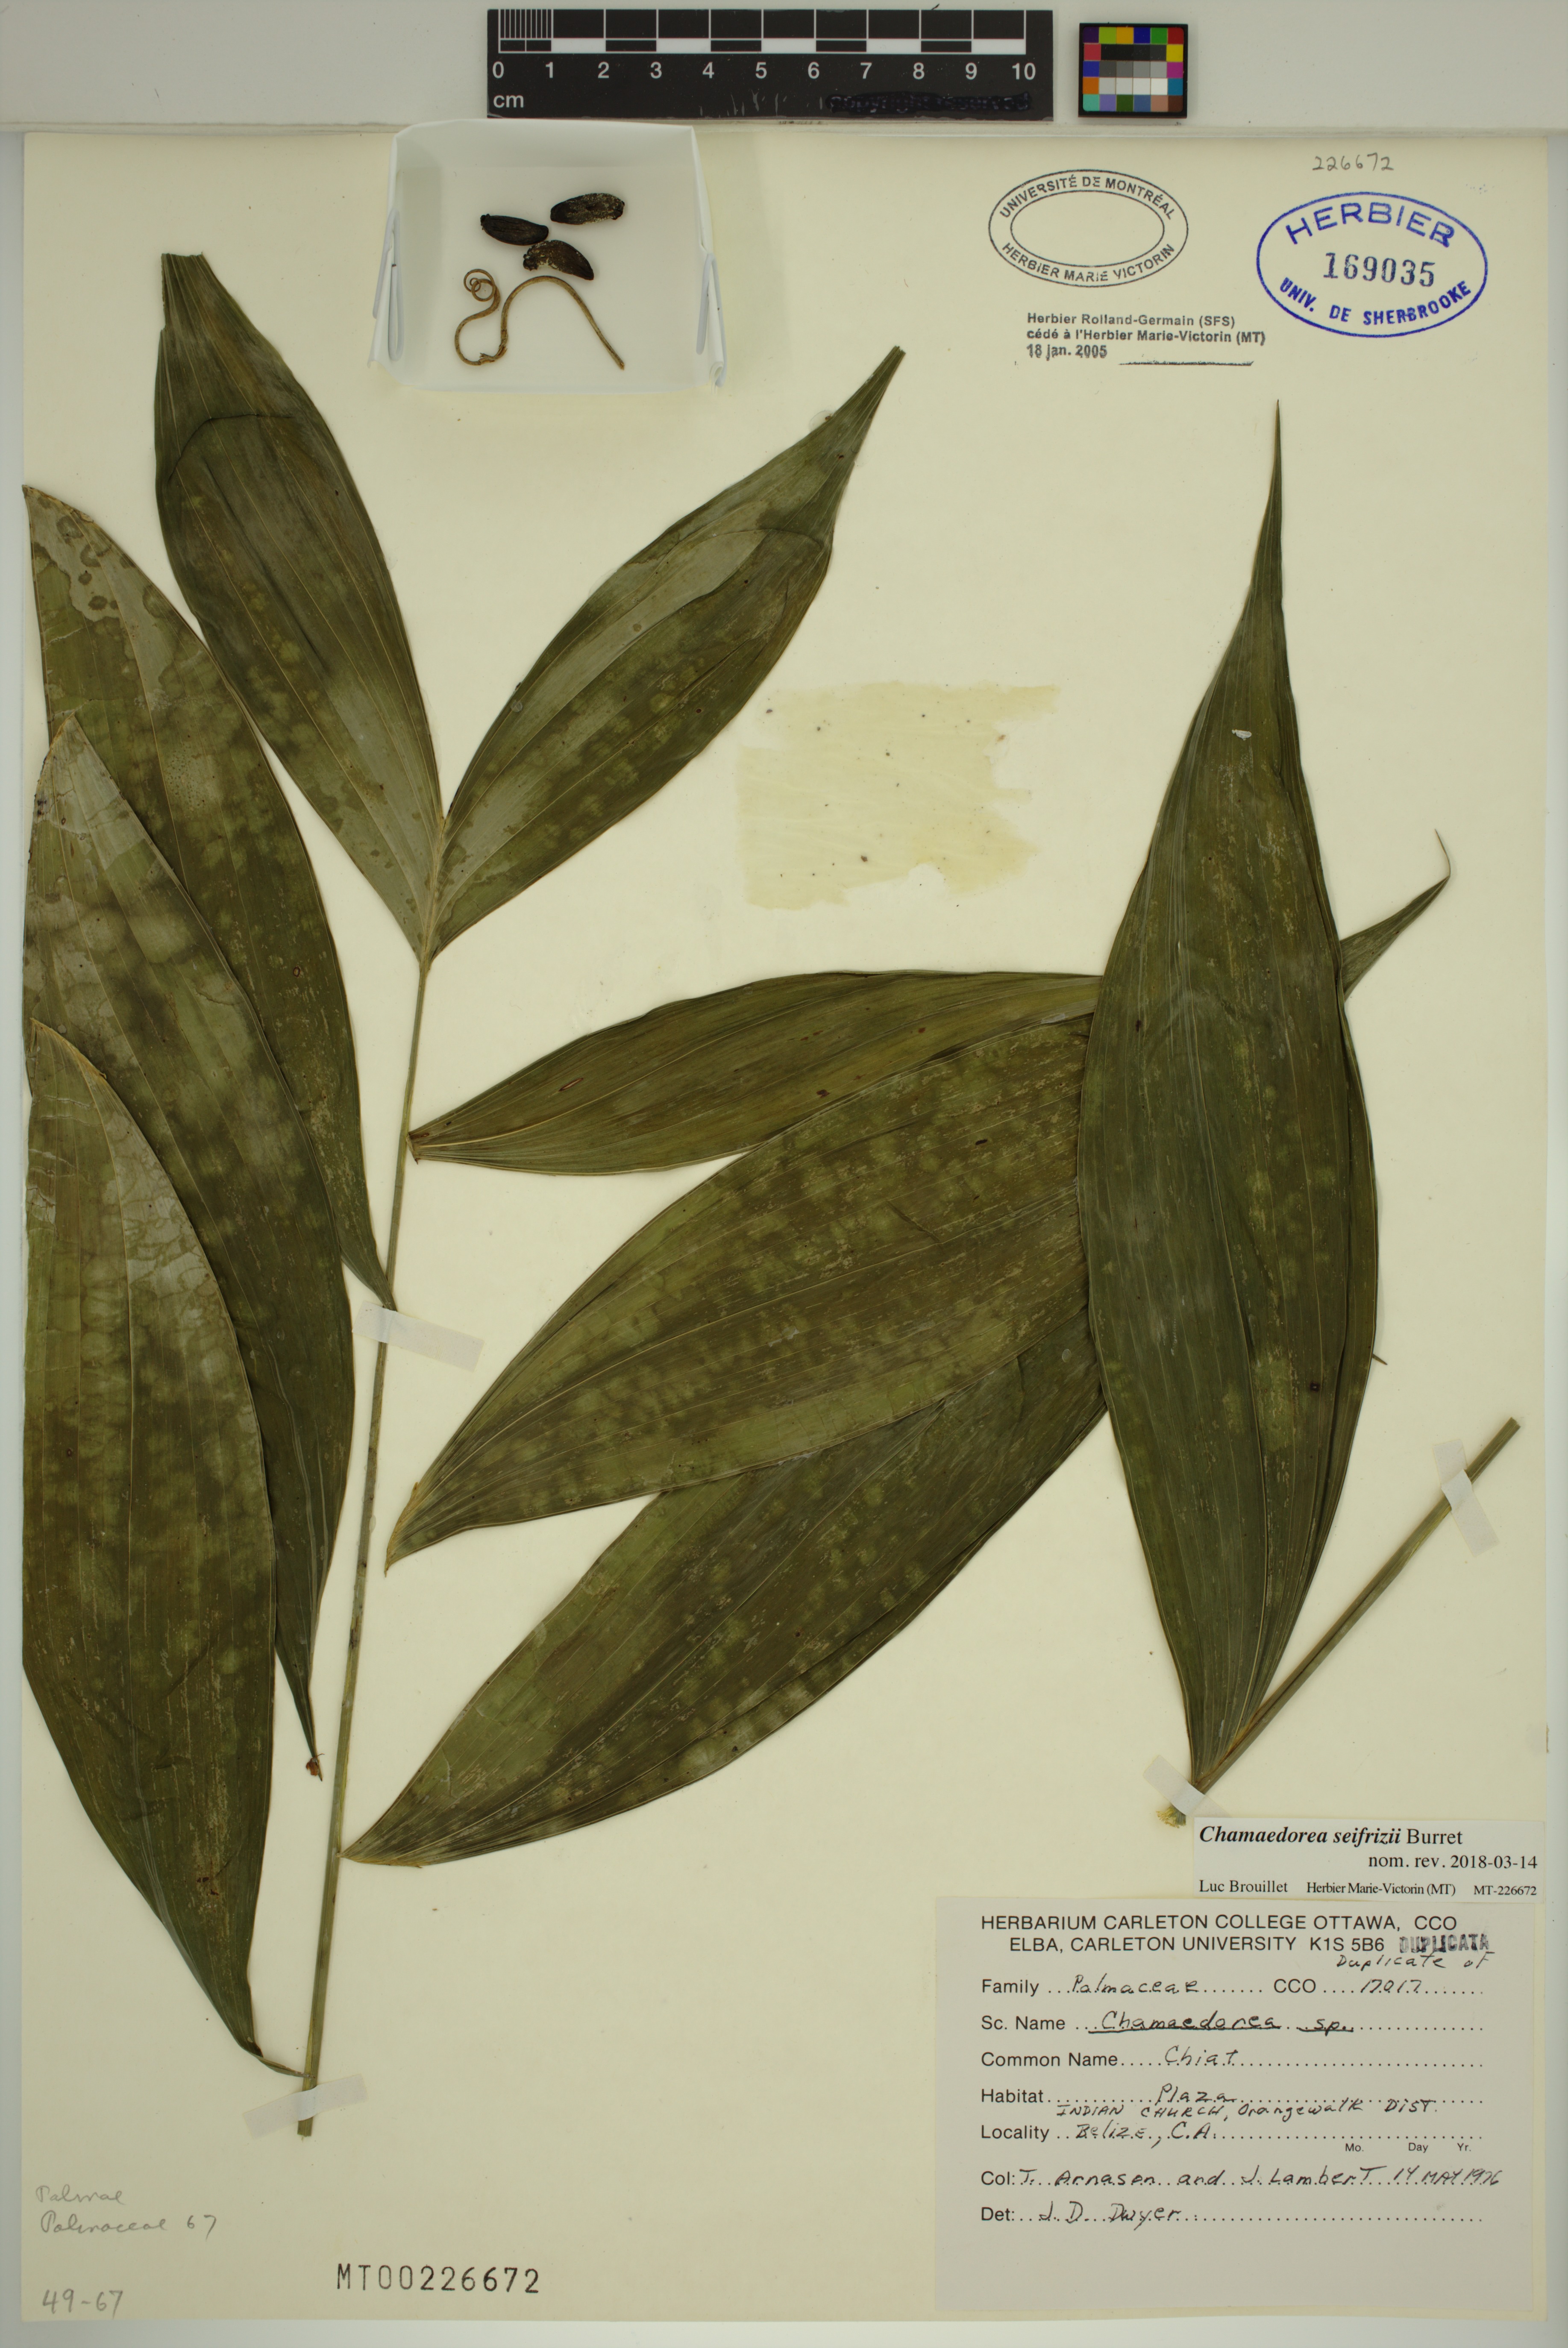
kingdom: Plantae
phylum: Tracheophyta
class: Liliopsida
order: Arecales
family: Arecaceae
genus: Chamaedorea
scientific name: Chamaedorea seifrizii
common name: Seifriz's chamaedorea
